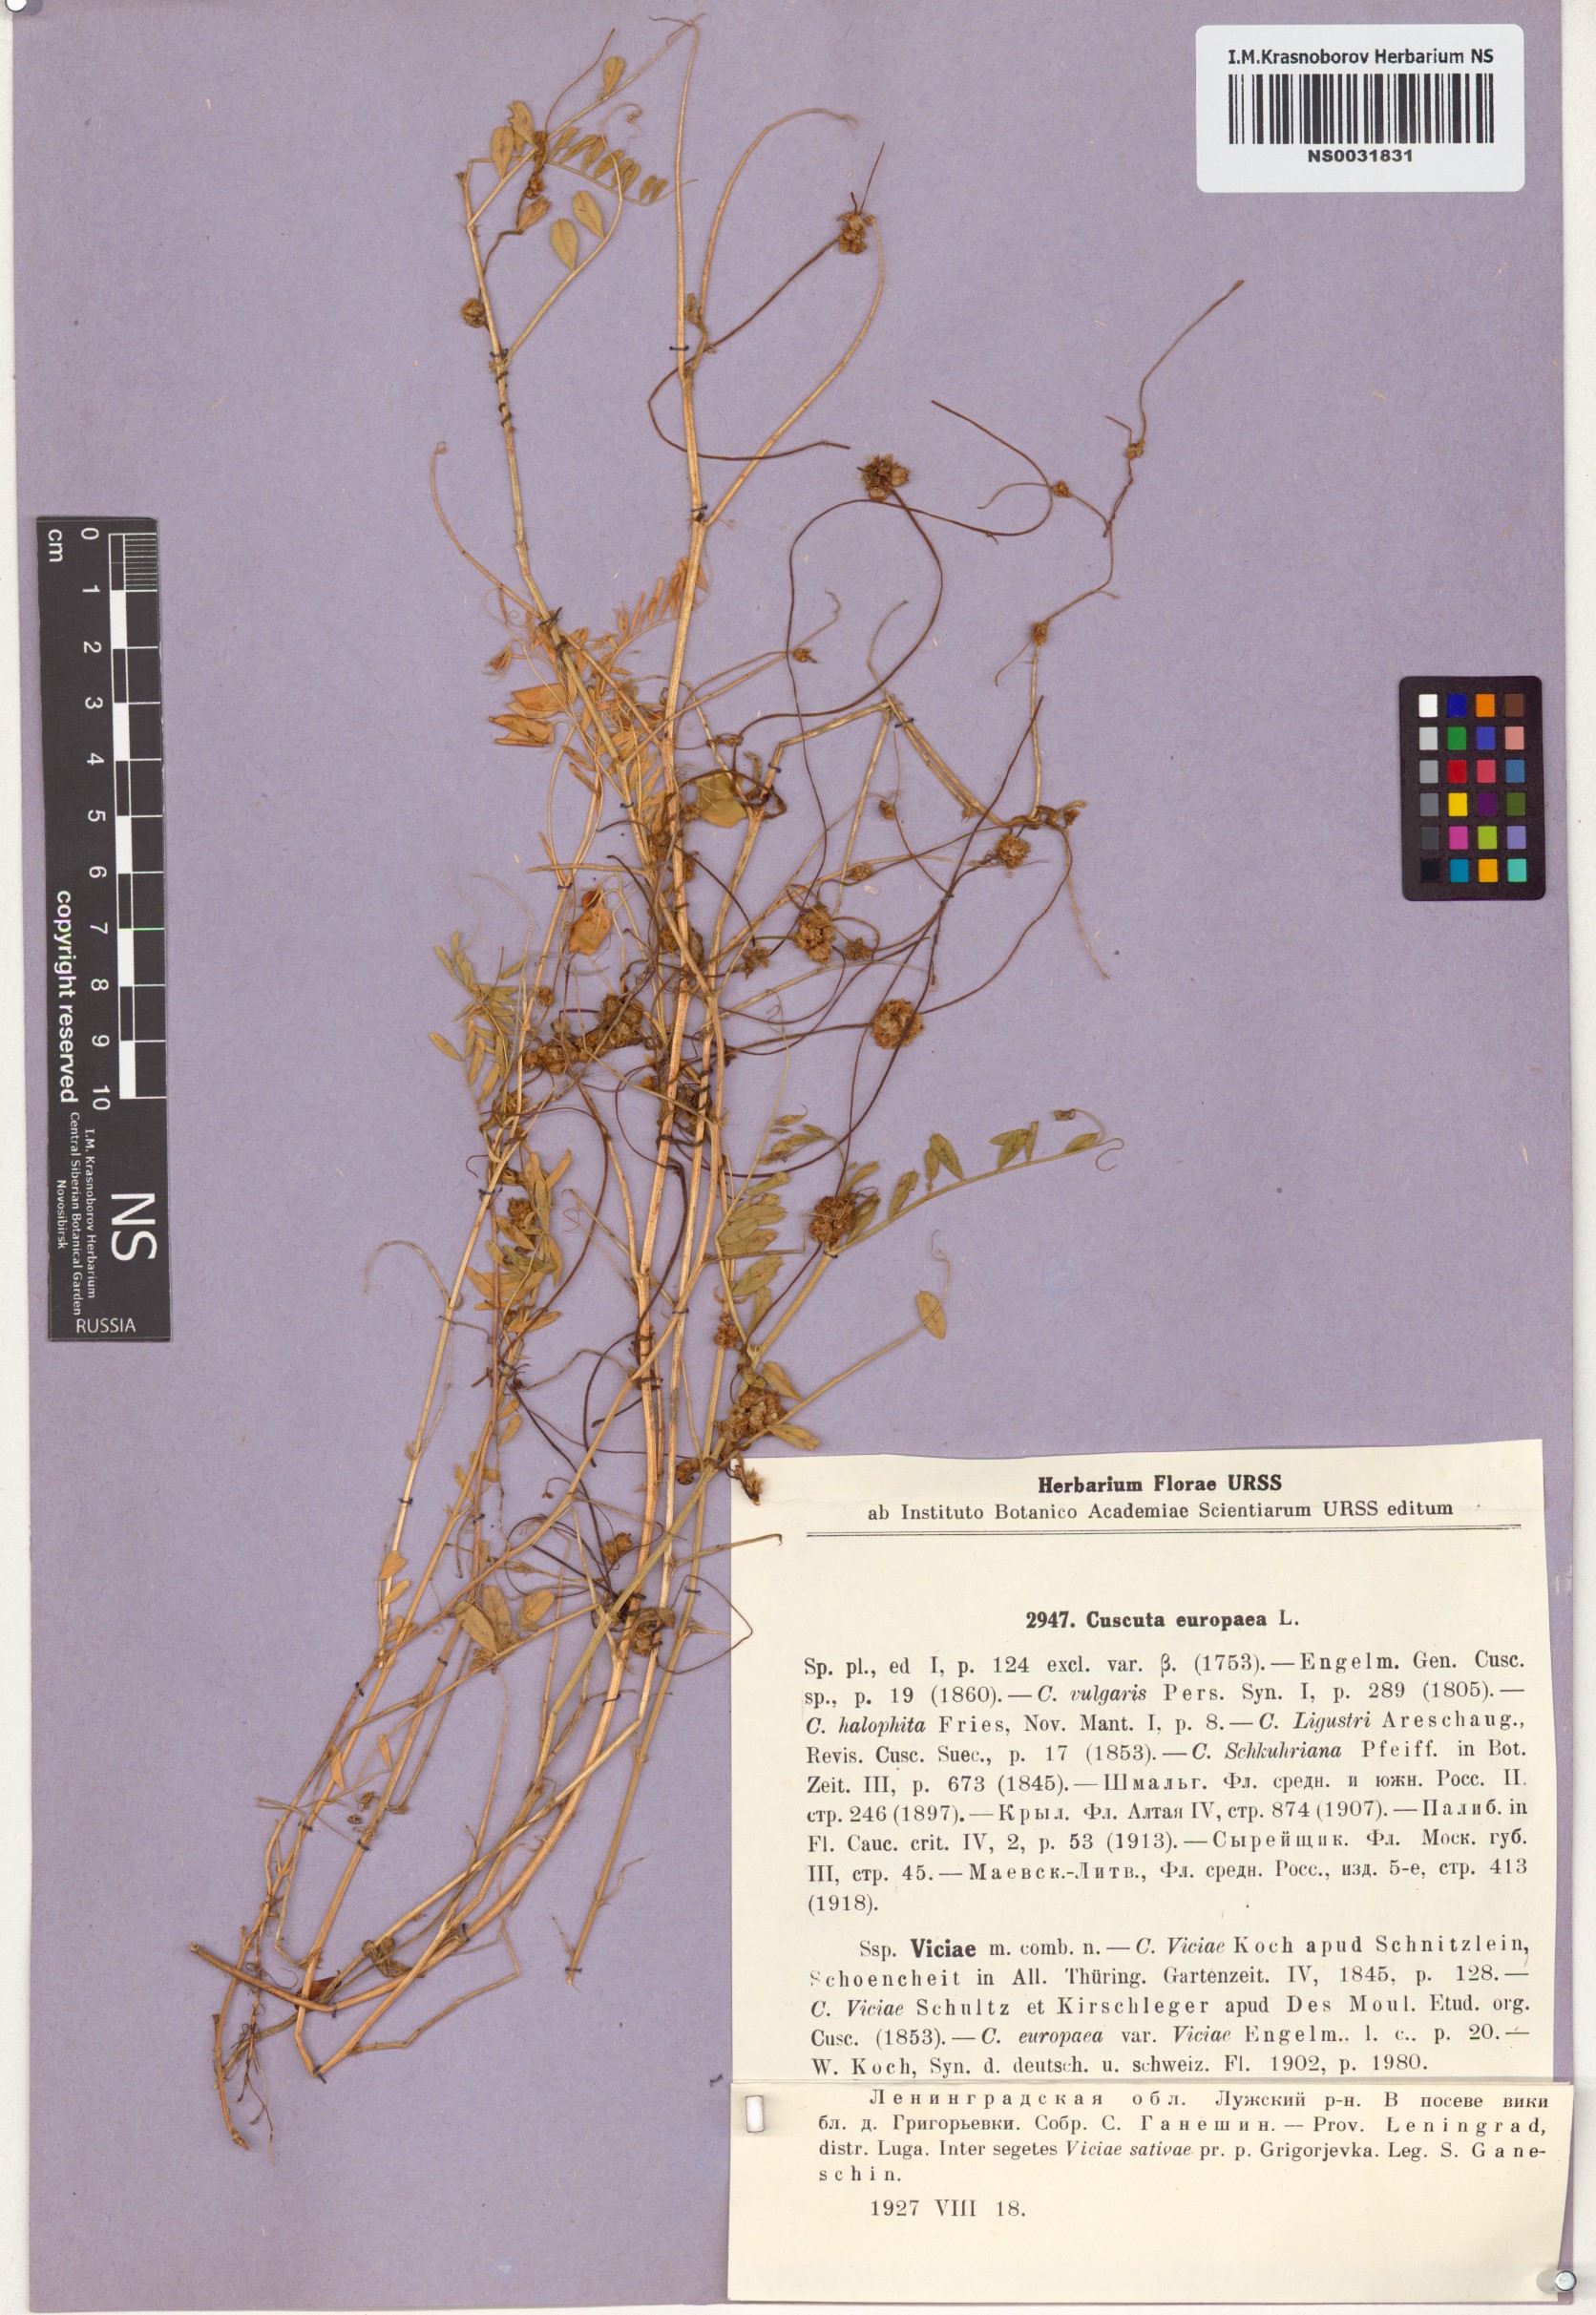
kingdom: Plantae
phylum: Tracheophyta
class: Magnoliopsida
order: Solanales
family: Convolvulaceae
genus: Cuscuta
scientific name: Cuscuta europaea
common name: Greater dodder
